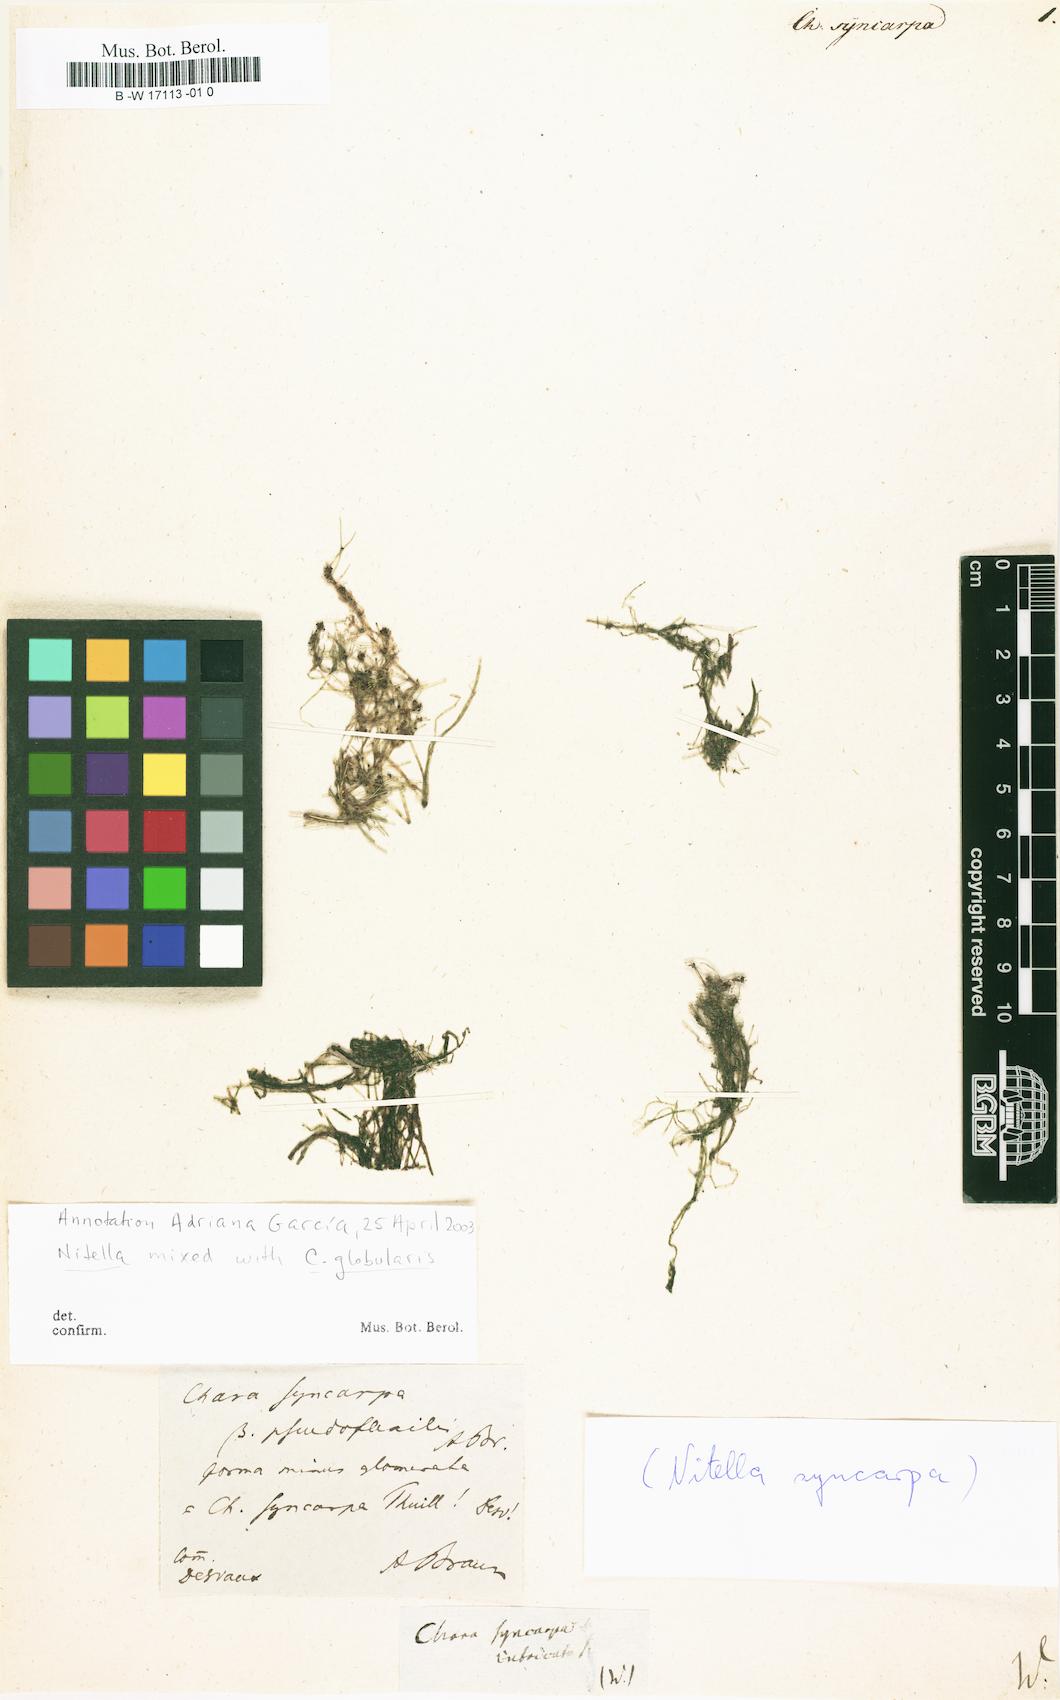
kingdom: Plantae
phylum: Charophyta
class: Charophyceae
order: Charales
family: Characeae
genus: Nitella
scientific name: Nitella syncarpa
